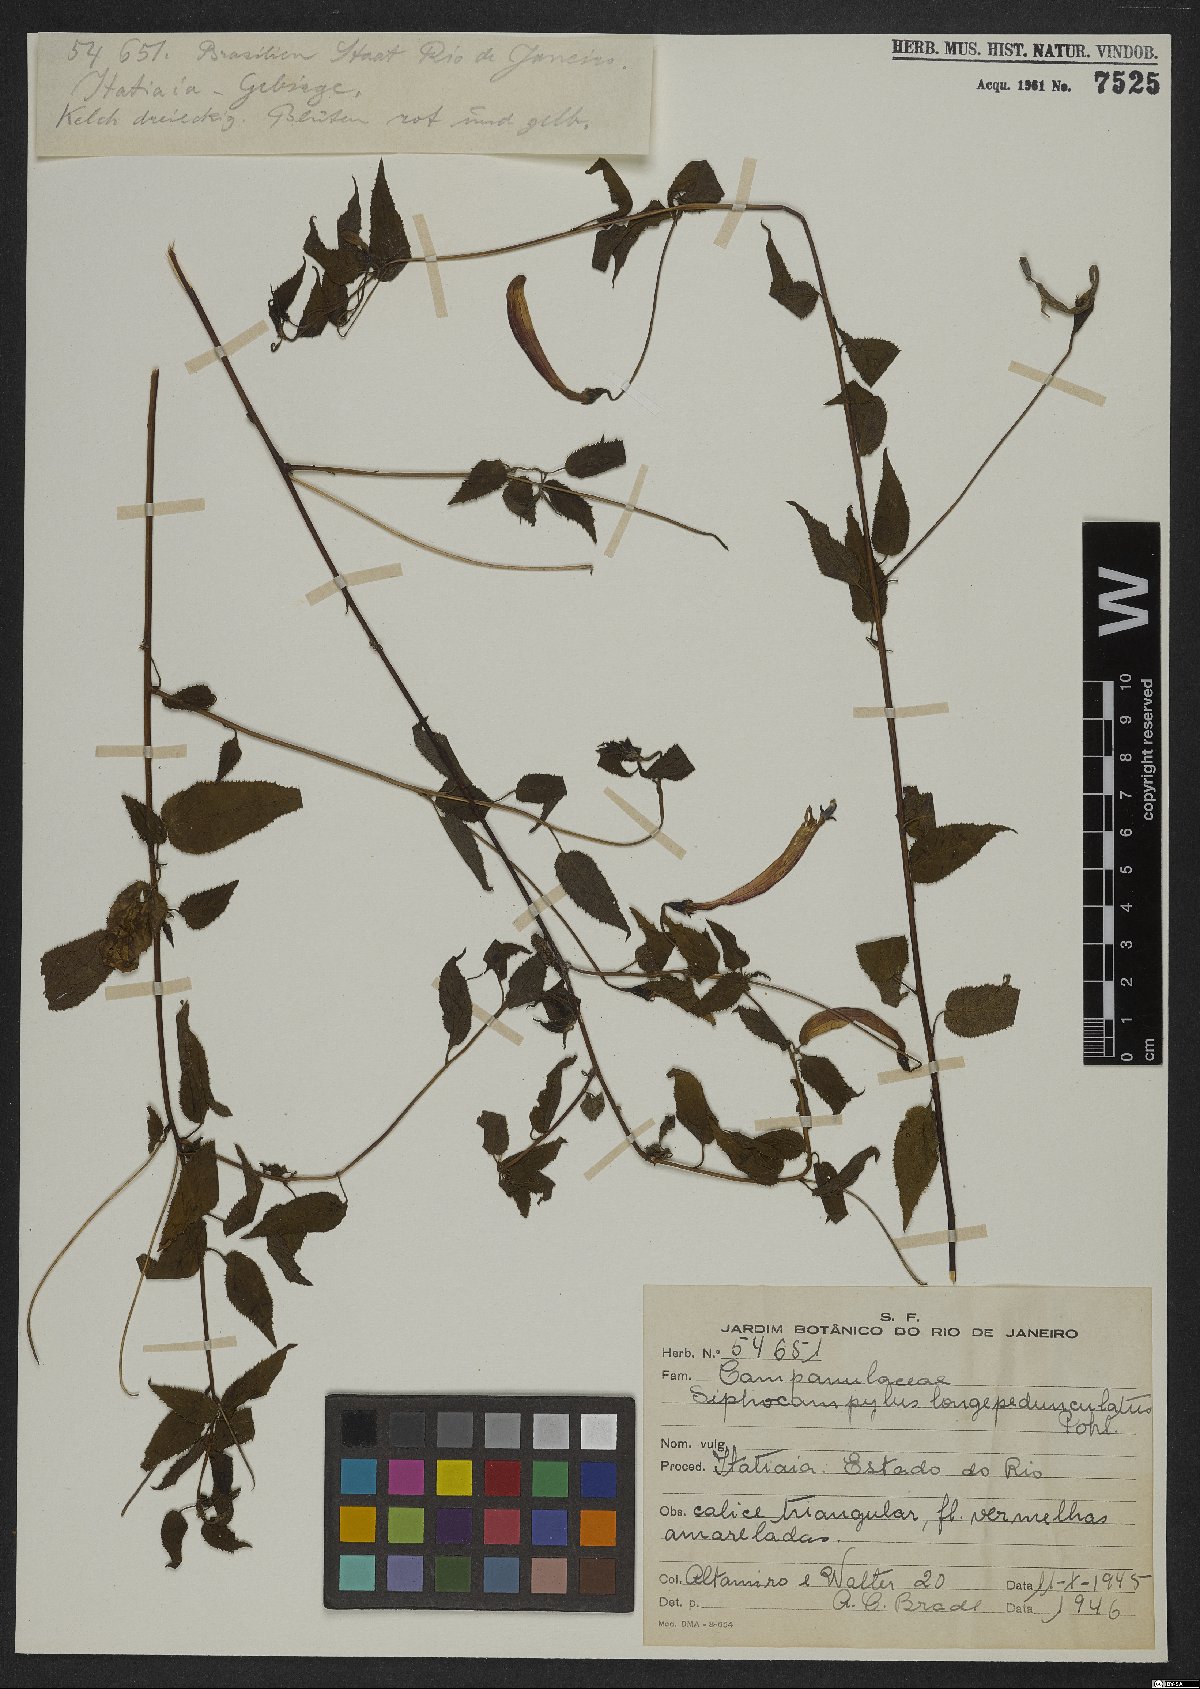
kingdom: Plantae
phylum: Tracheophyta
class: Magnoliopsida
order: Asterales
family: Campanulaceae
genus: Siphocampylus
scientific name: Siphocampylus longipedunculatus
